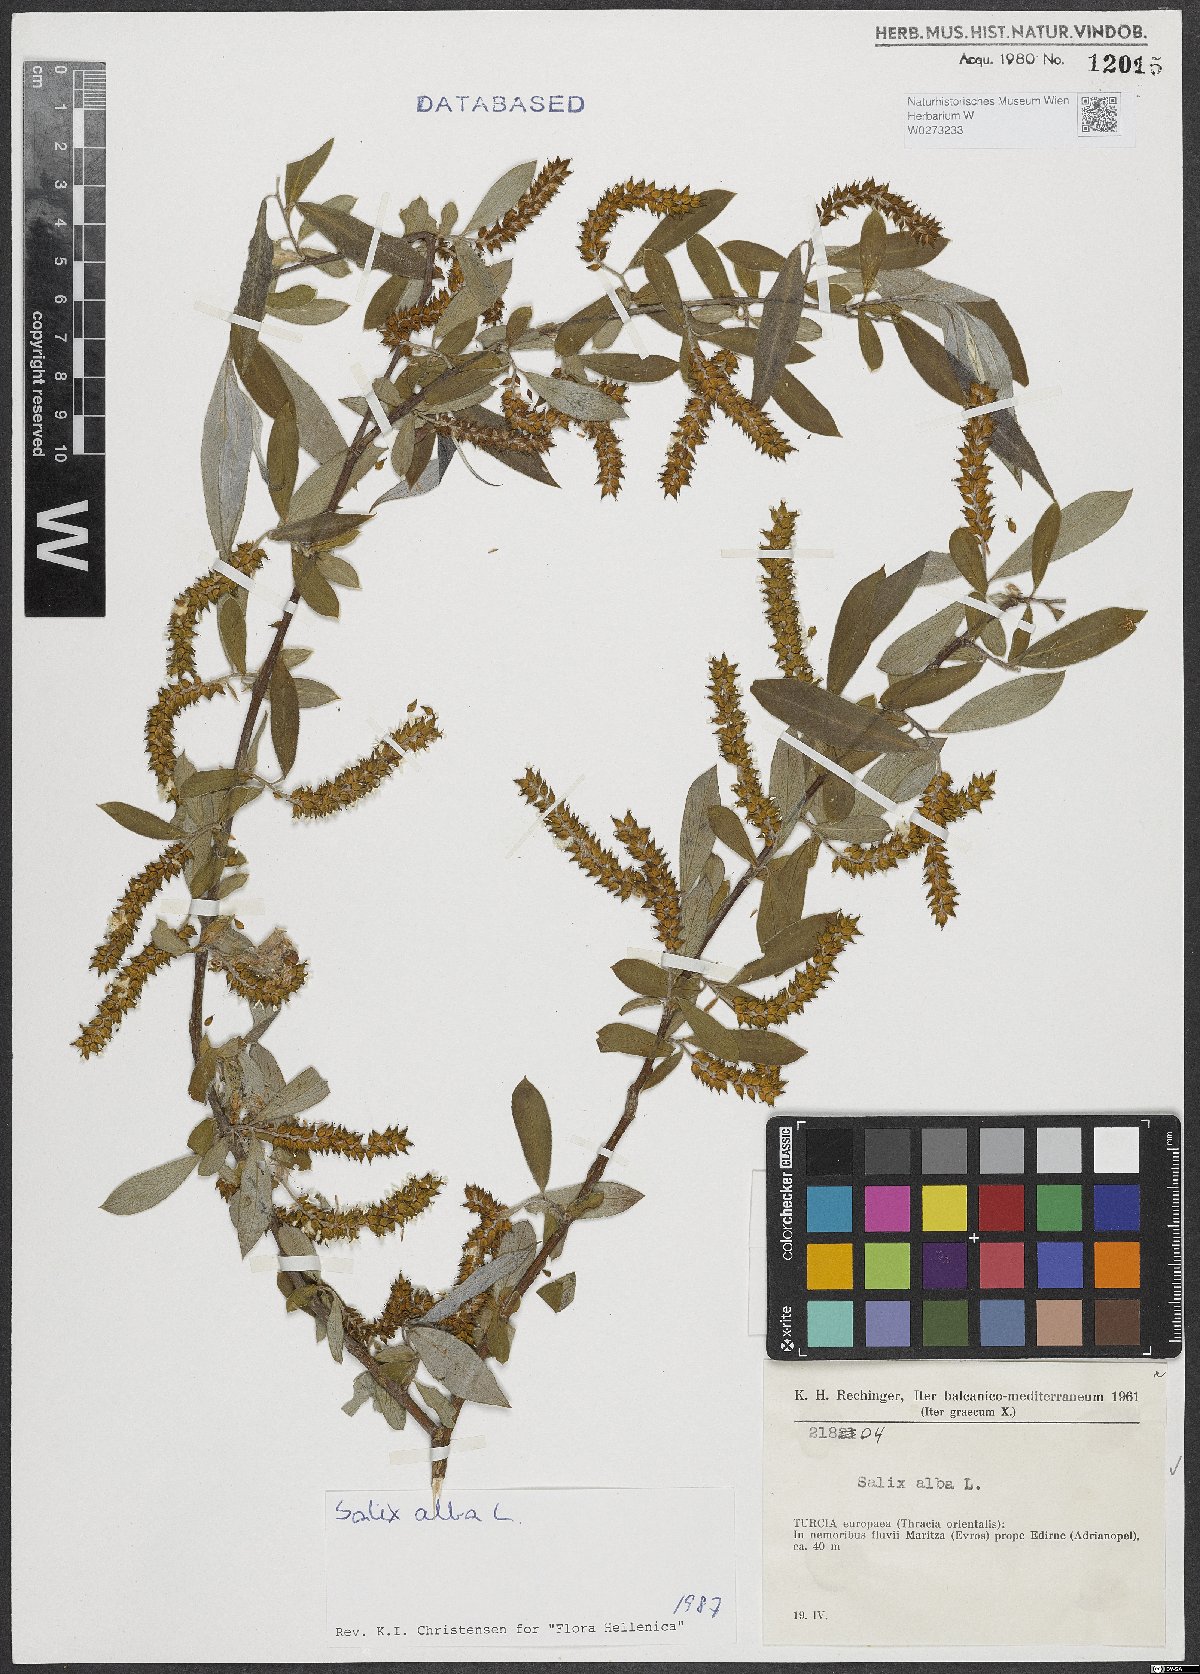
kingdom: Plantae
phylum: Tracheophyta
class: Magnoliopsida
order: Malpighiales
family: Salicaceae
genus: Salix
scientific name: Salix alba
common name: White willow
